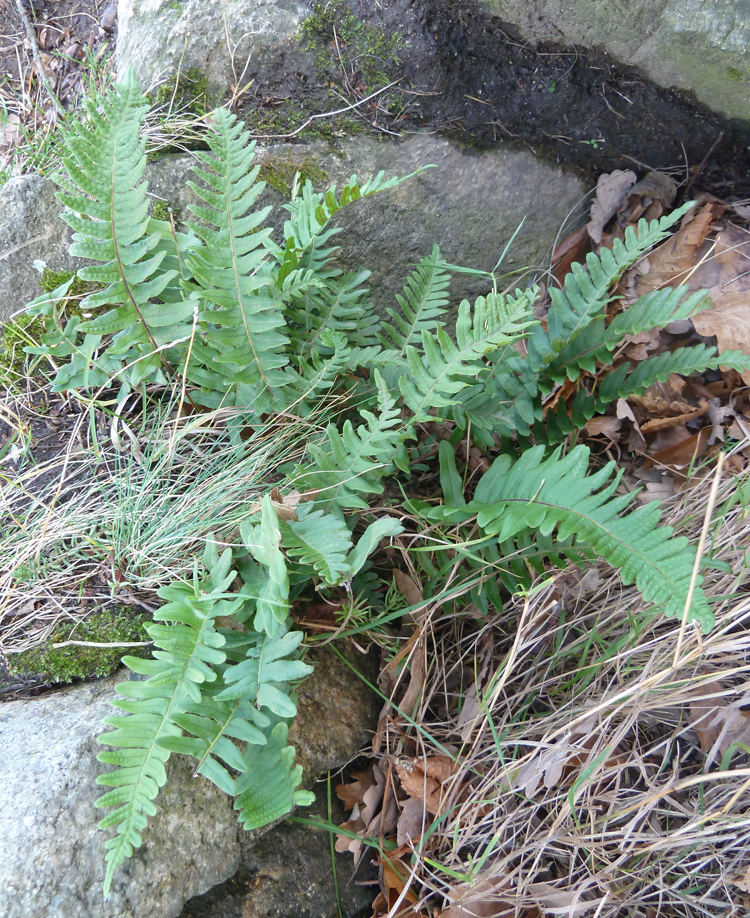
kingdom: Plantae
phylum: Tracheophyta
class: Polypodiopsida
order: Polypodiales
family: Polypodiaceae
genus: Polypodium
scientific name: Polypodium vulgare
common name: Common polypody
